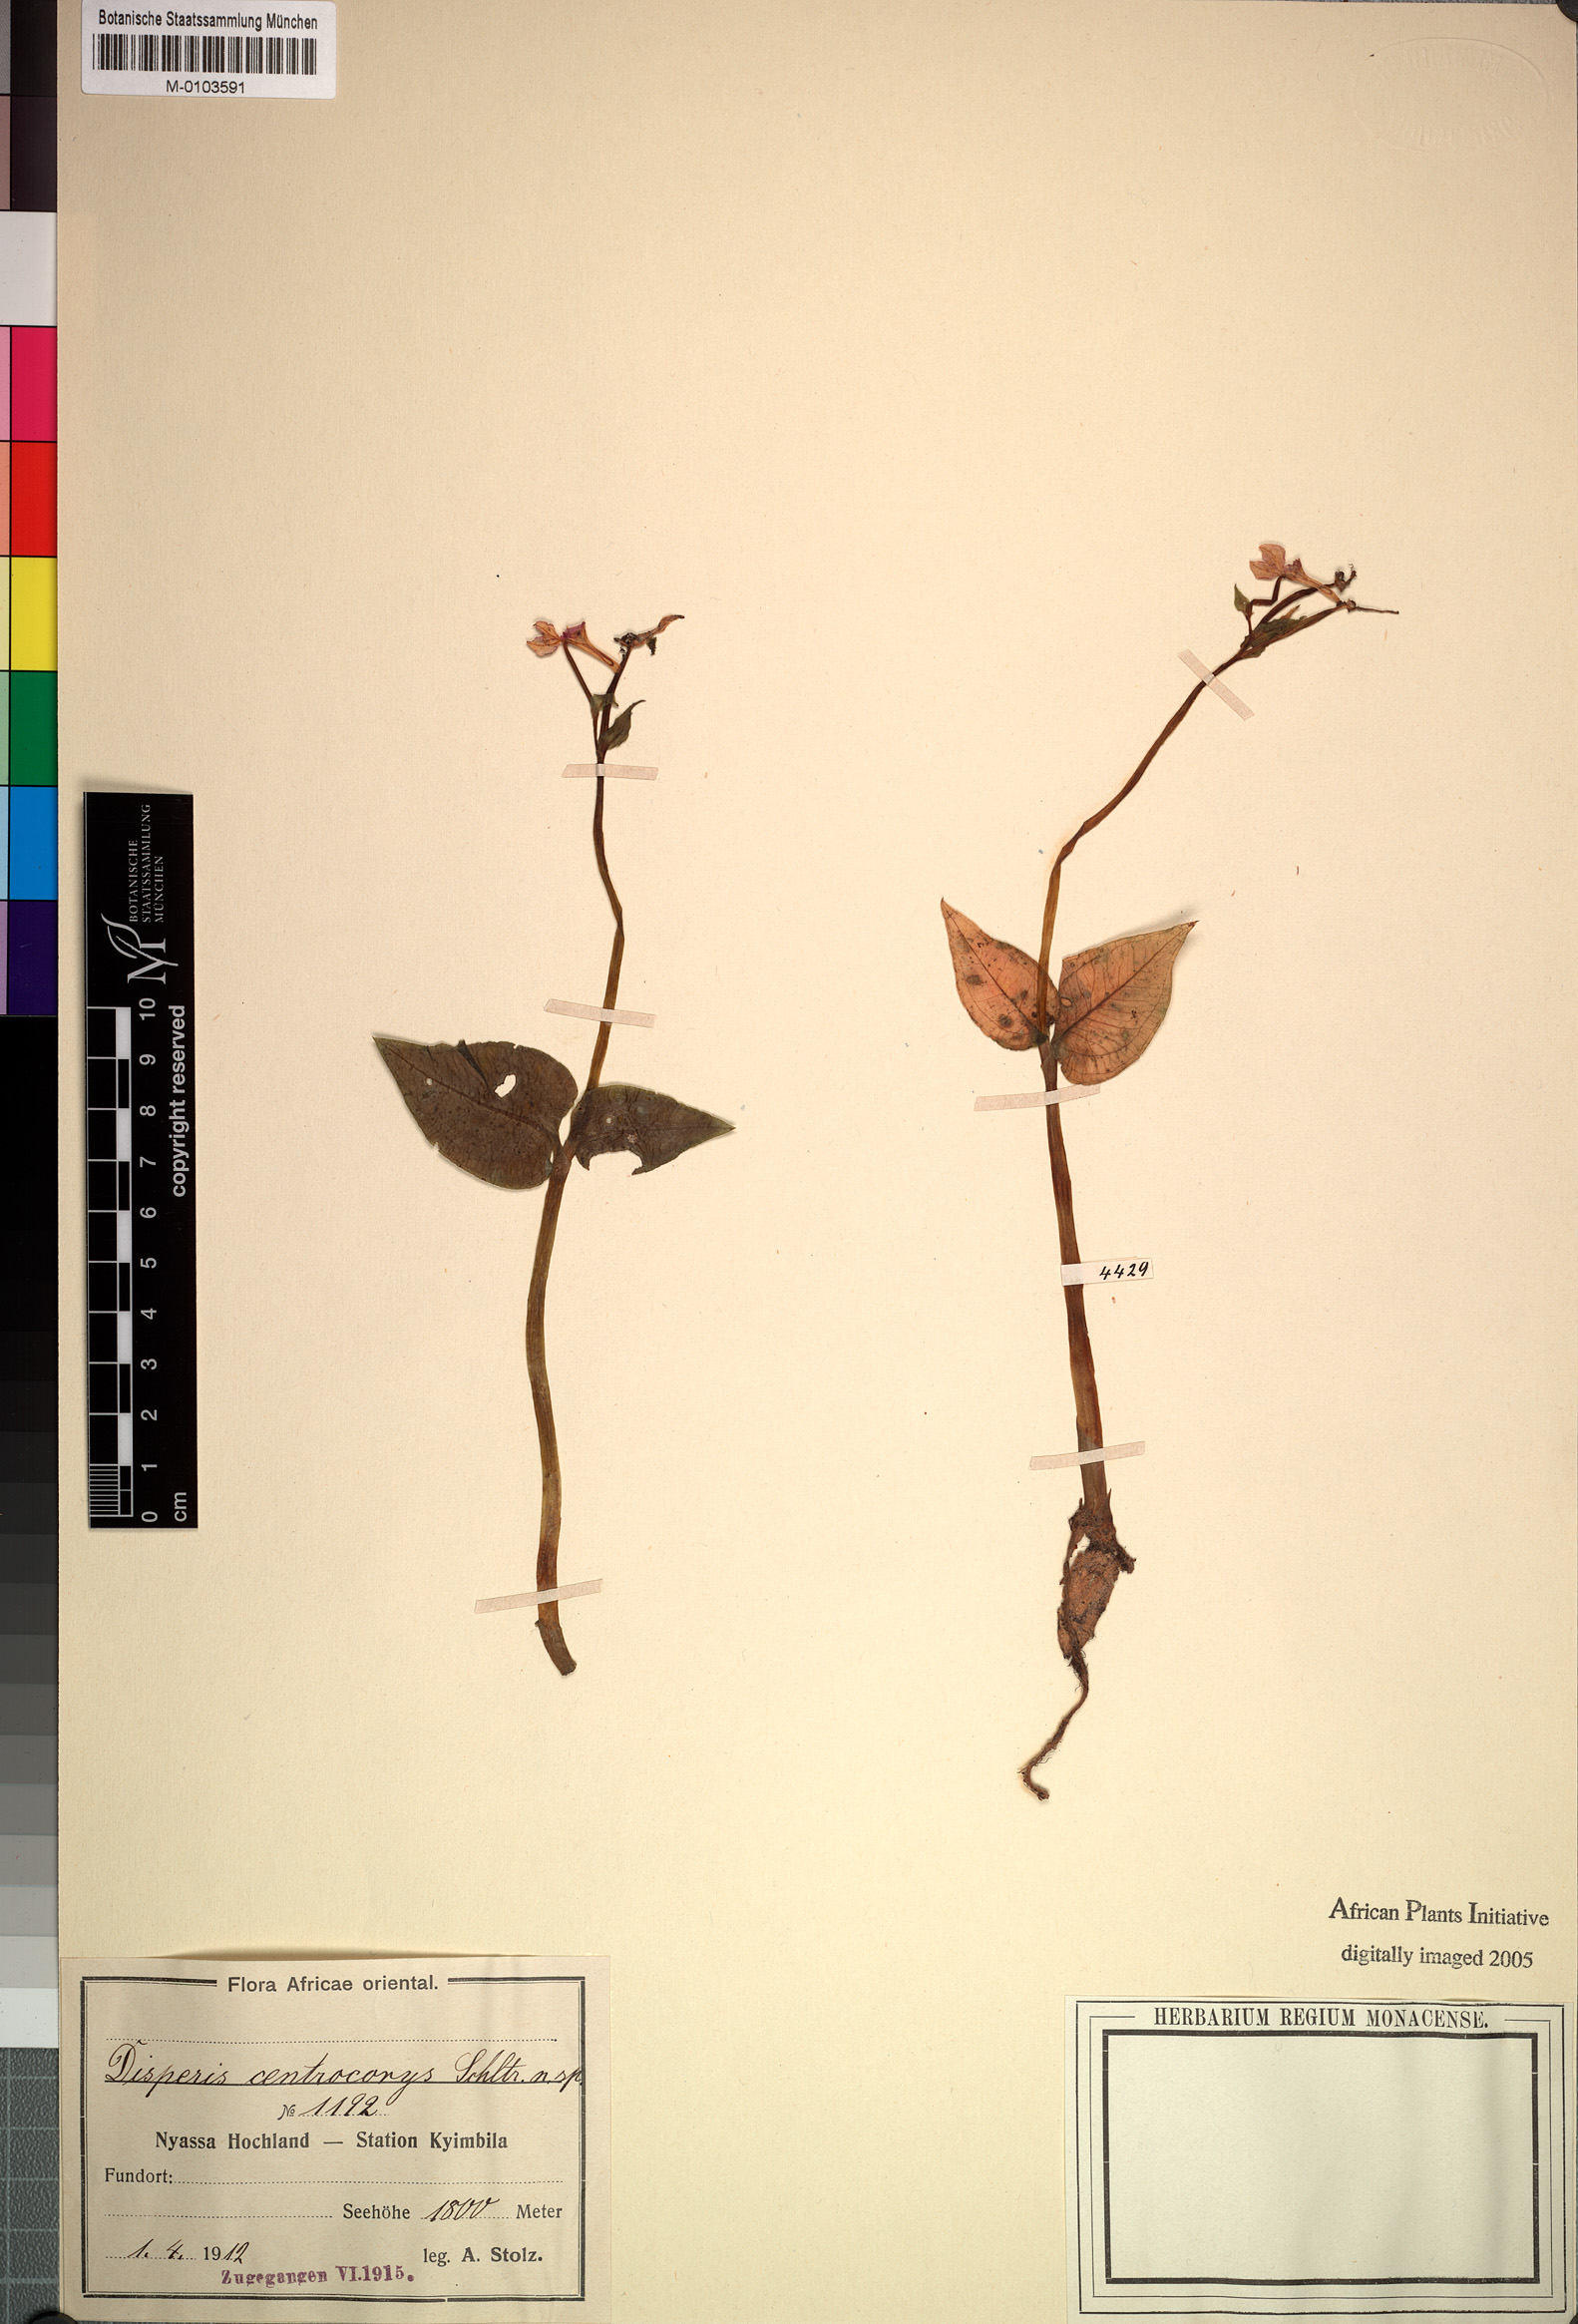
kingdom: Plantae
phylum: Tracheophyta
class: Liliopsida
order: Asparagales
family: Orchidaceae
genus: Disperis
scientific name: Disperis nemorosa
